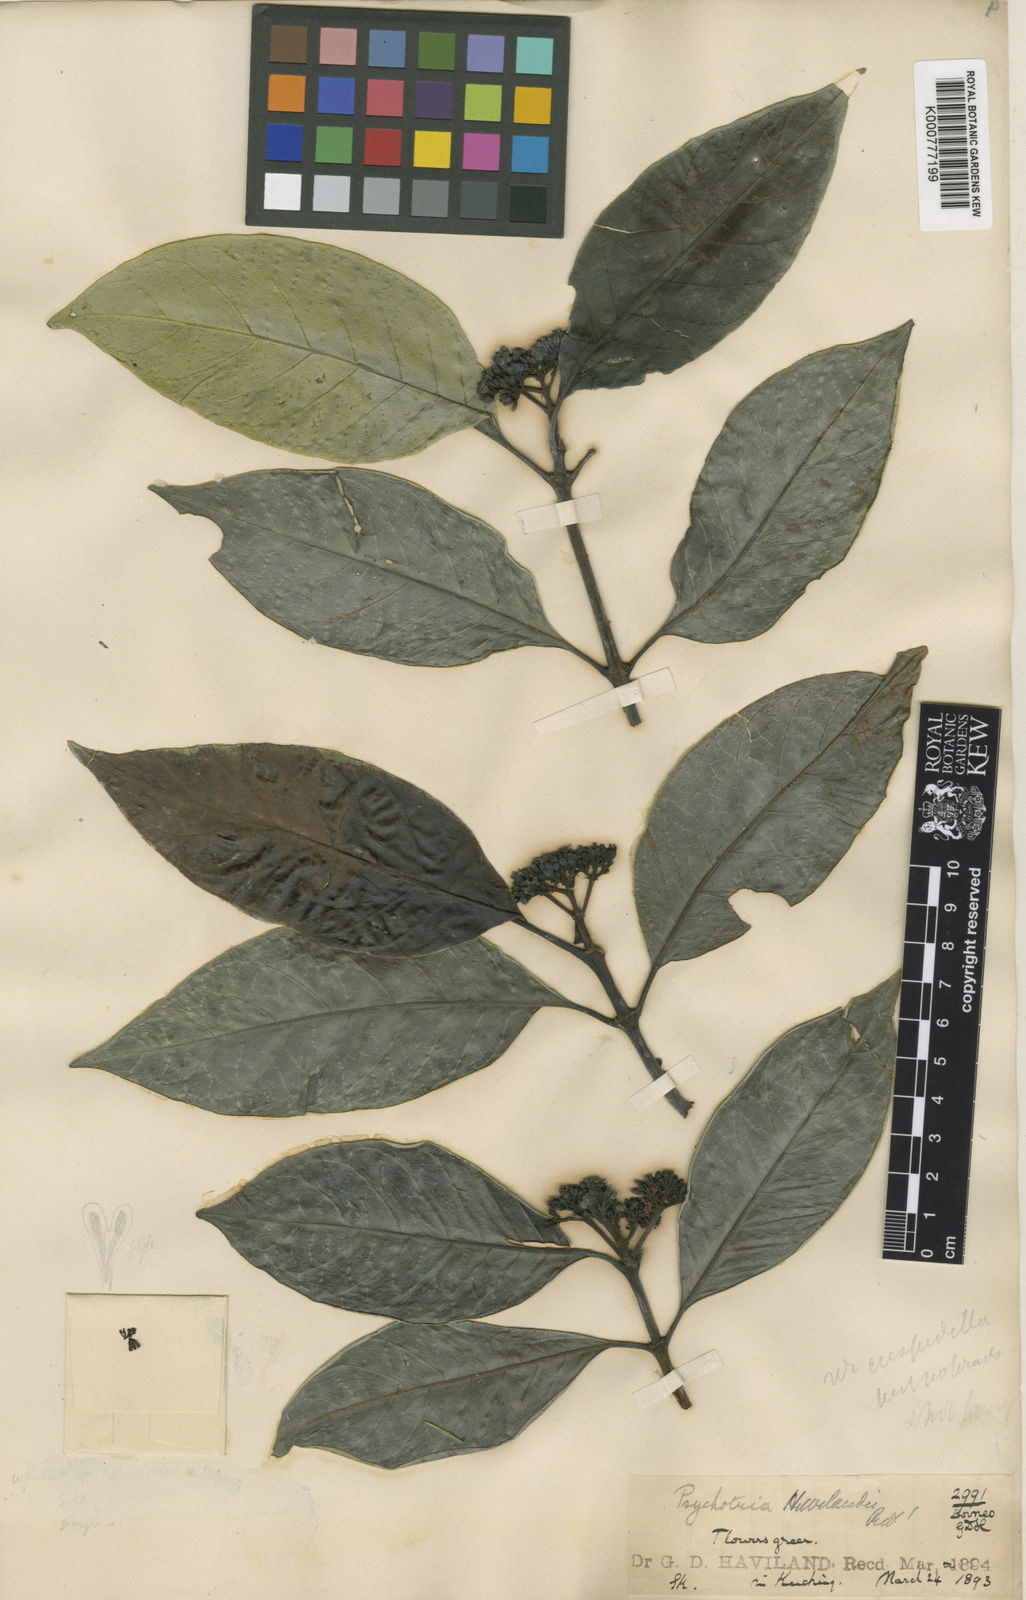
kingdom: Plantae
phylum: Tracheophyta
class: Magnoliopsida
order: Gentianales
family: Rubiaceae
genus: Psychotria
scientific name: Psychotria
